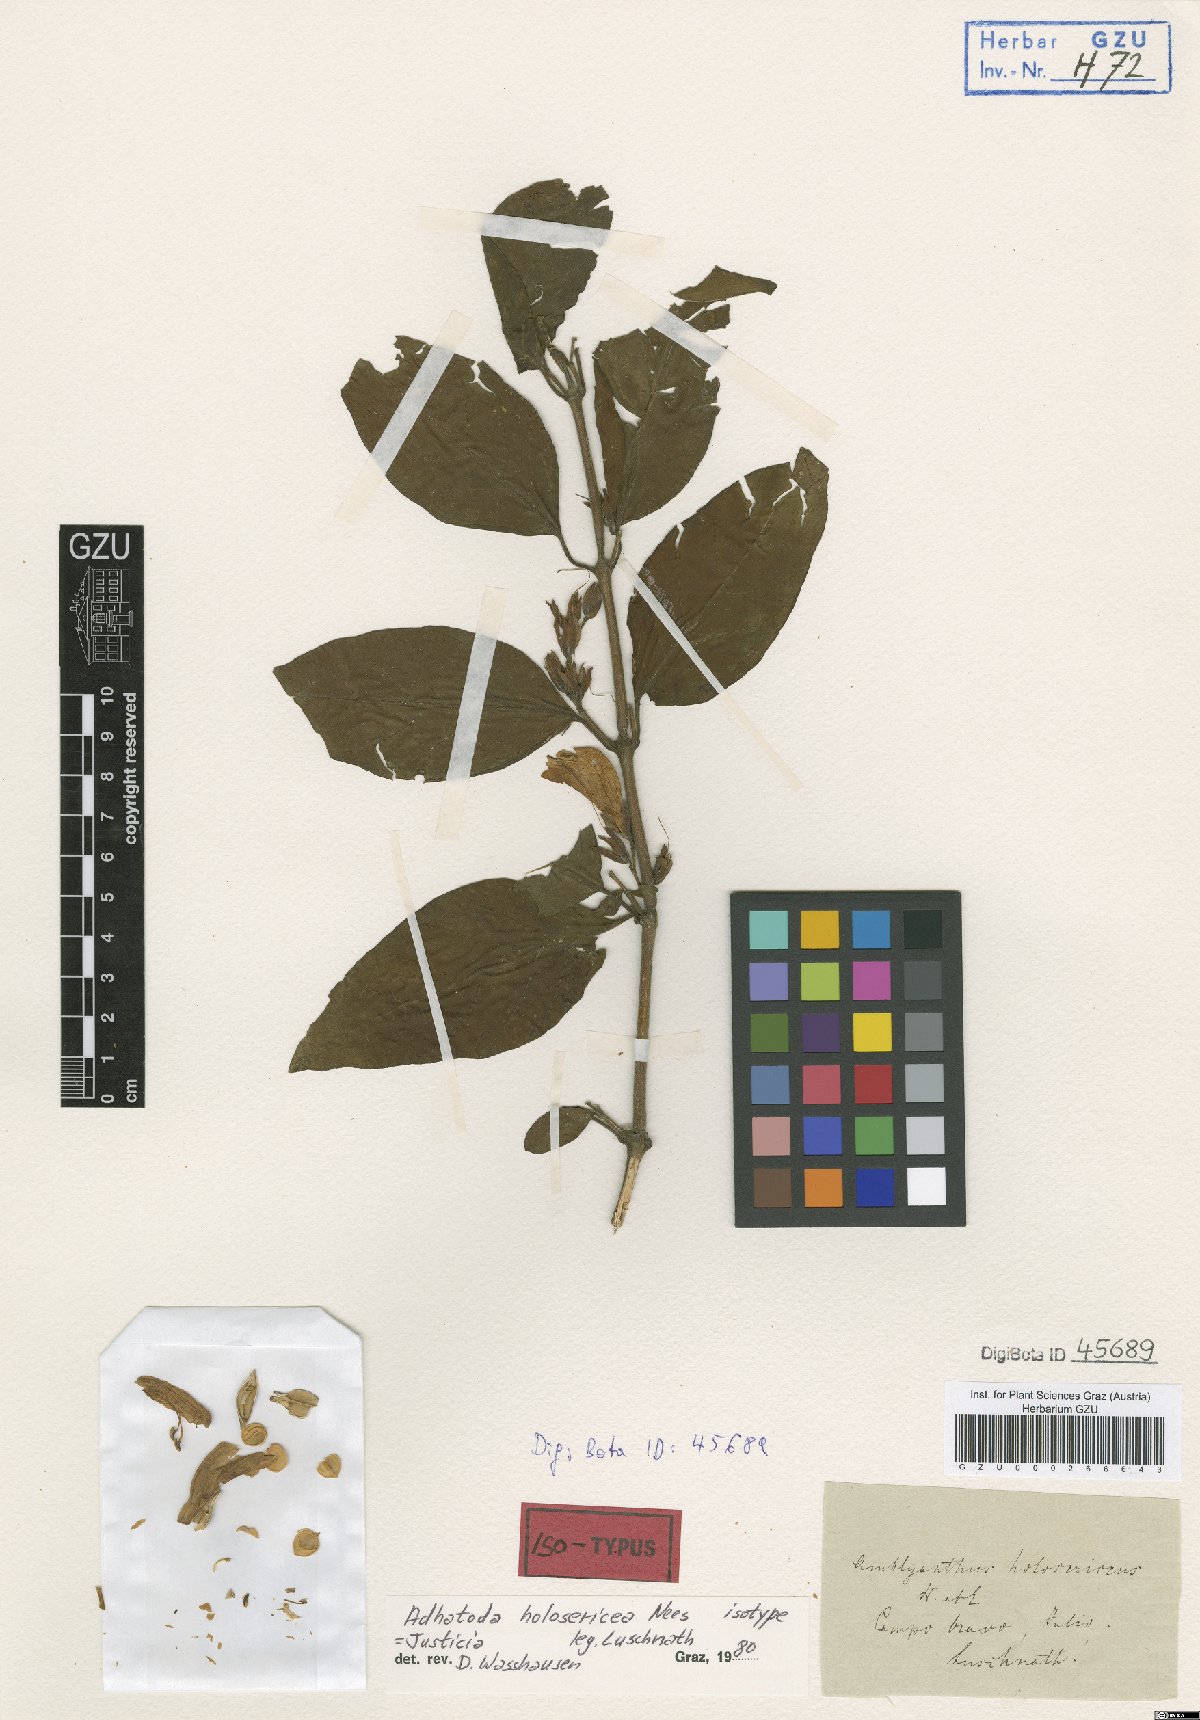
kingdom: Plantae
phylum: Tracheophyta
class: Magnoliopsida
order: Lamiales
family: Acanthaceae
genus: Justicia
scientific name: Justicia Adhatoda holosericea
